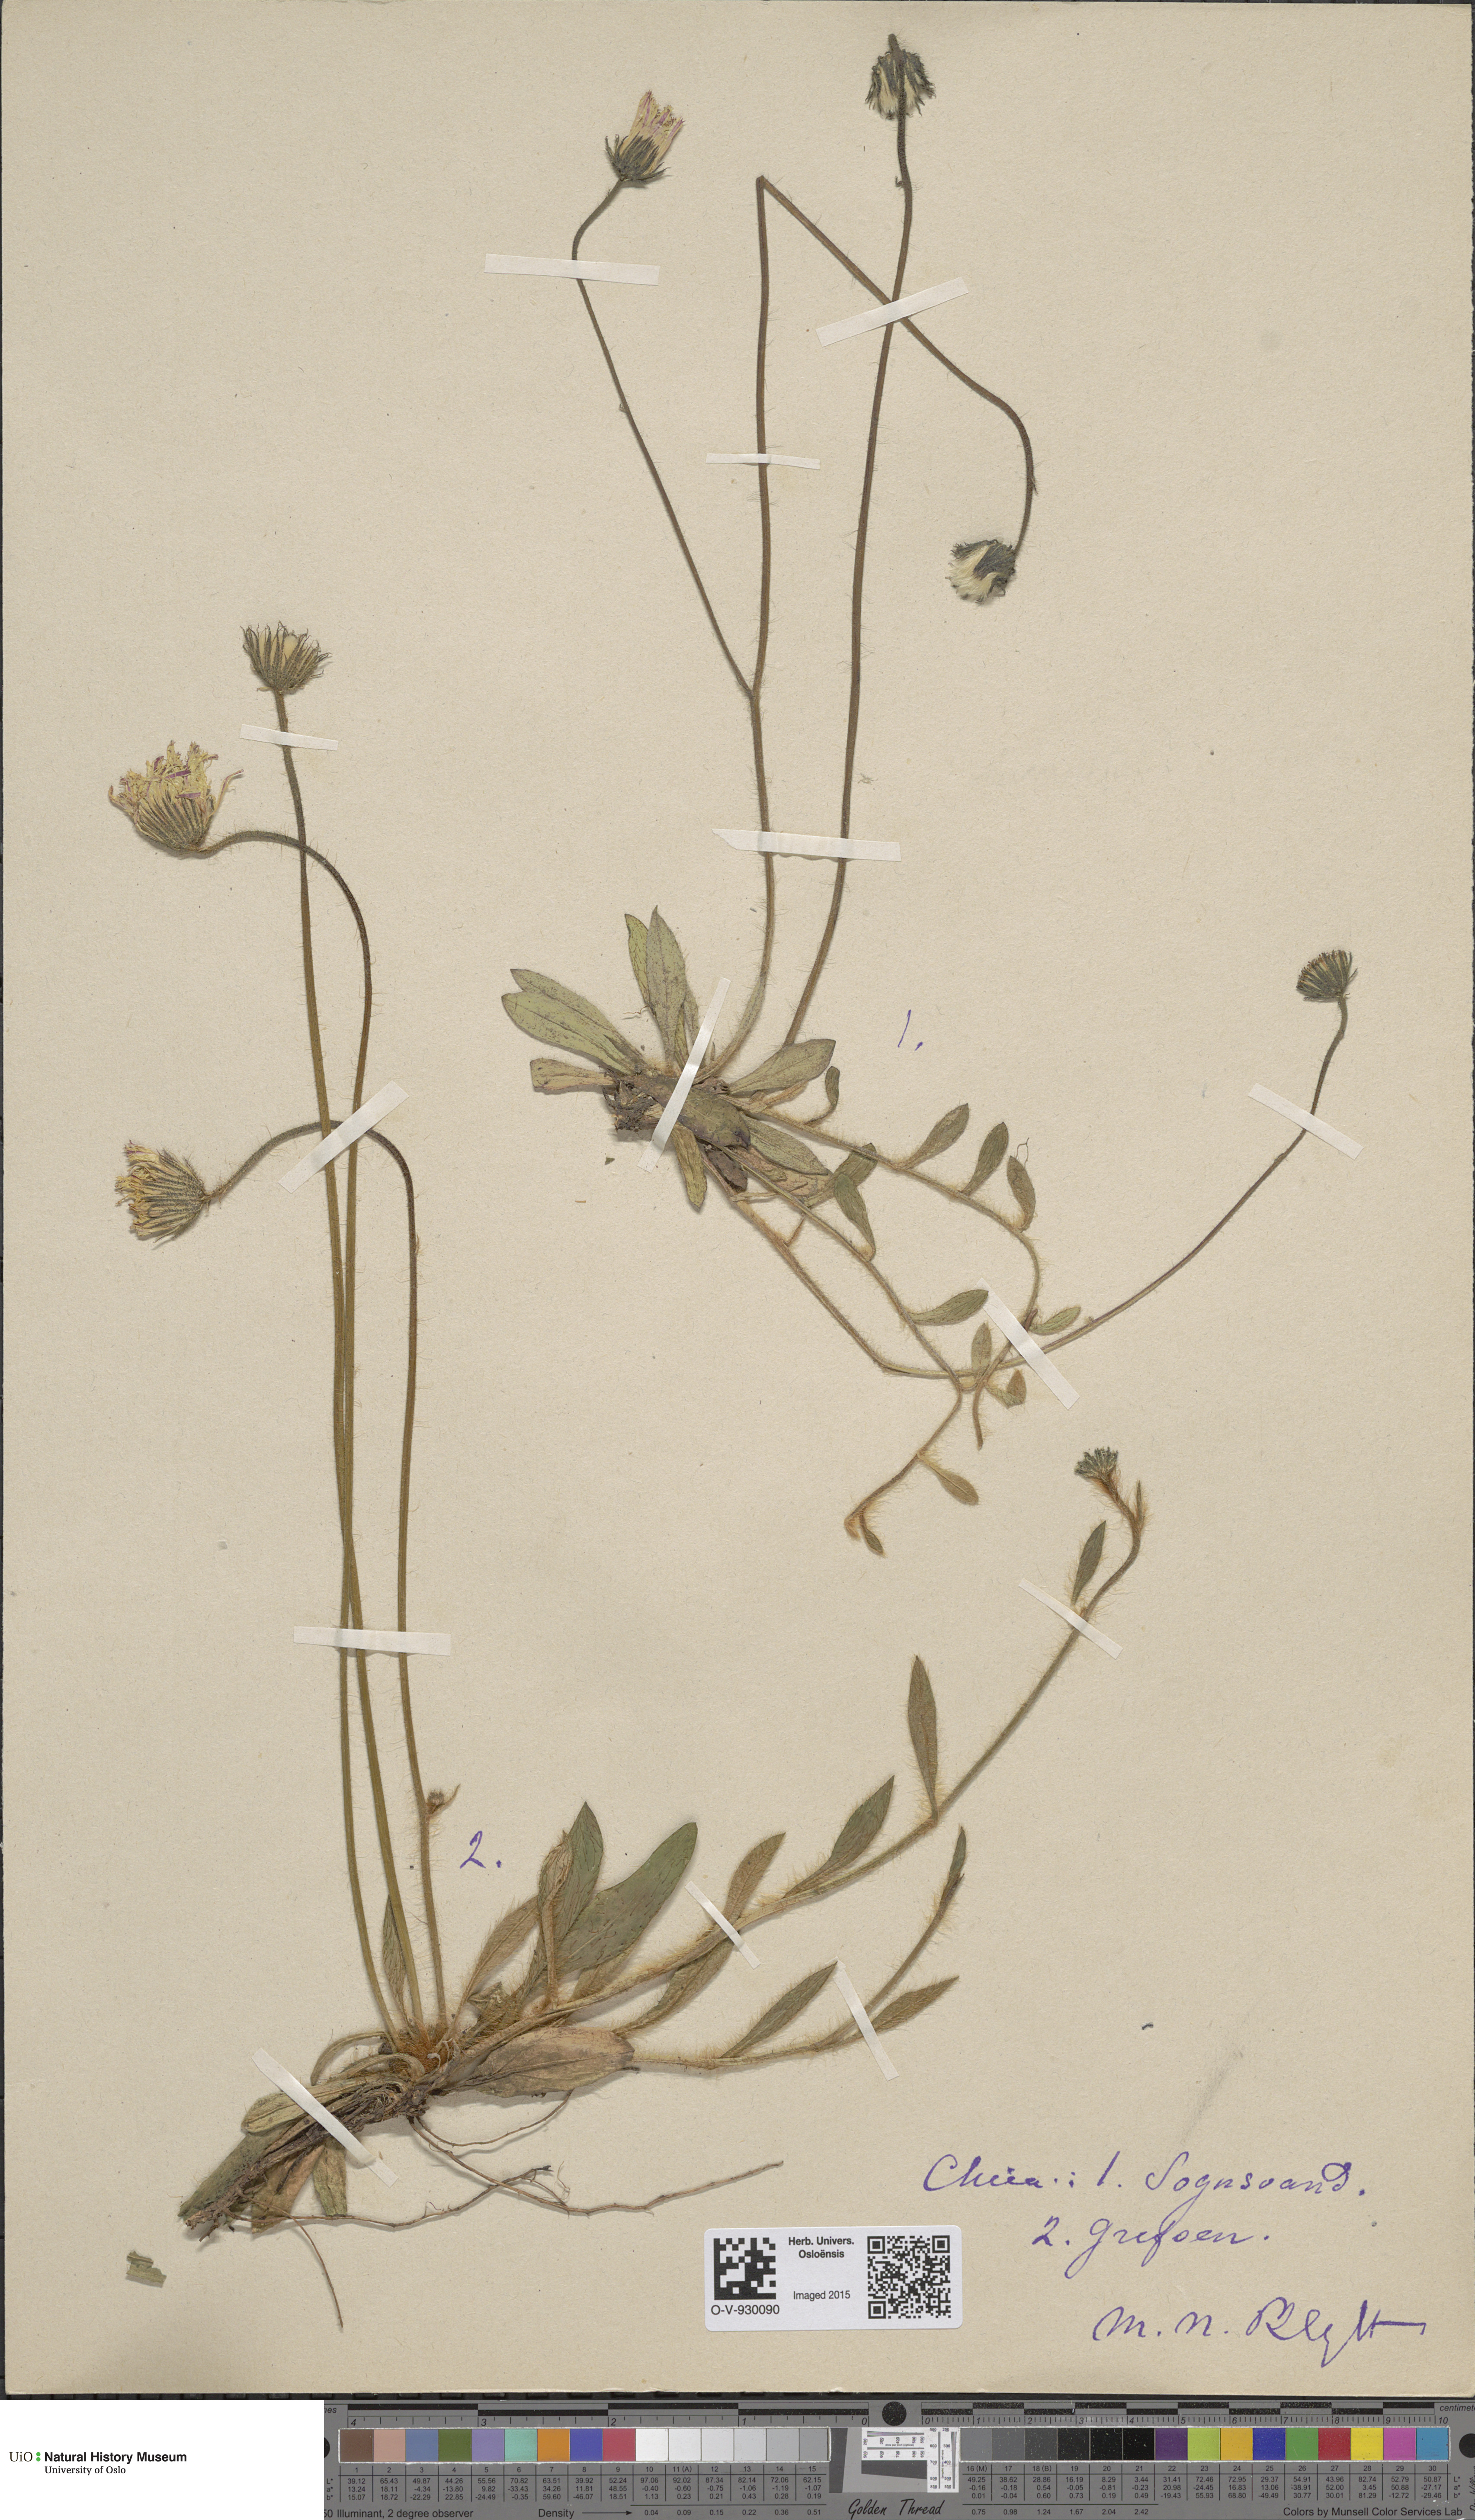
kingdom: Plantae
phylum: Tracheophyta
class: Magnoliopsida
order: Asterales
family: Asteraceae
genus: Pilosella
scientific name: Pilosella officinarum
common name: Mouse-ear hawkweed
